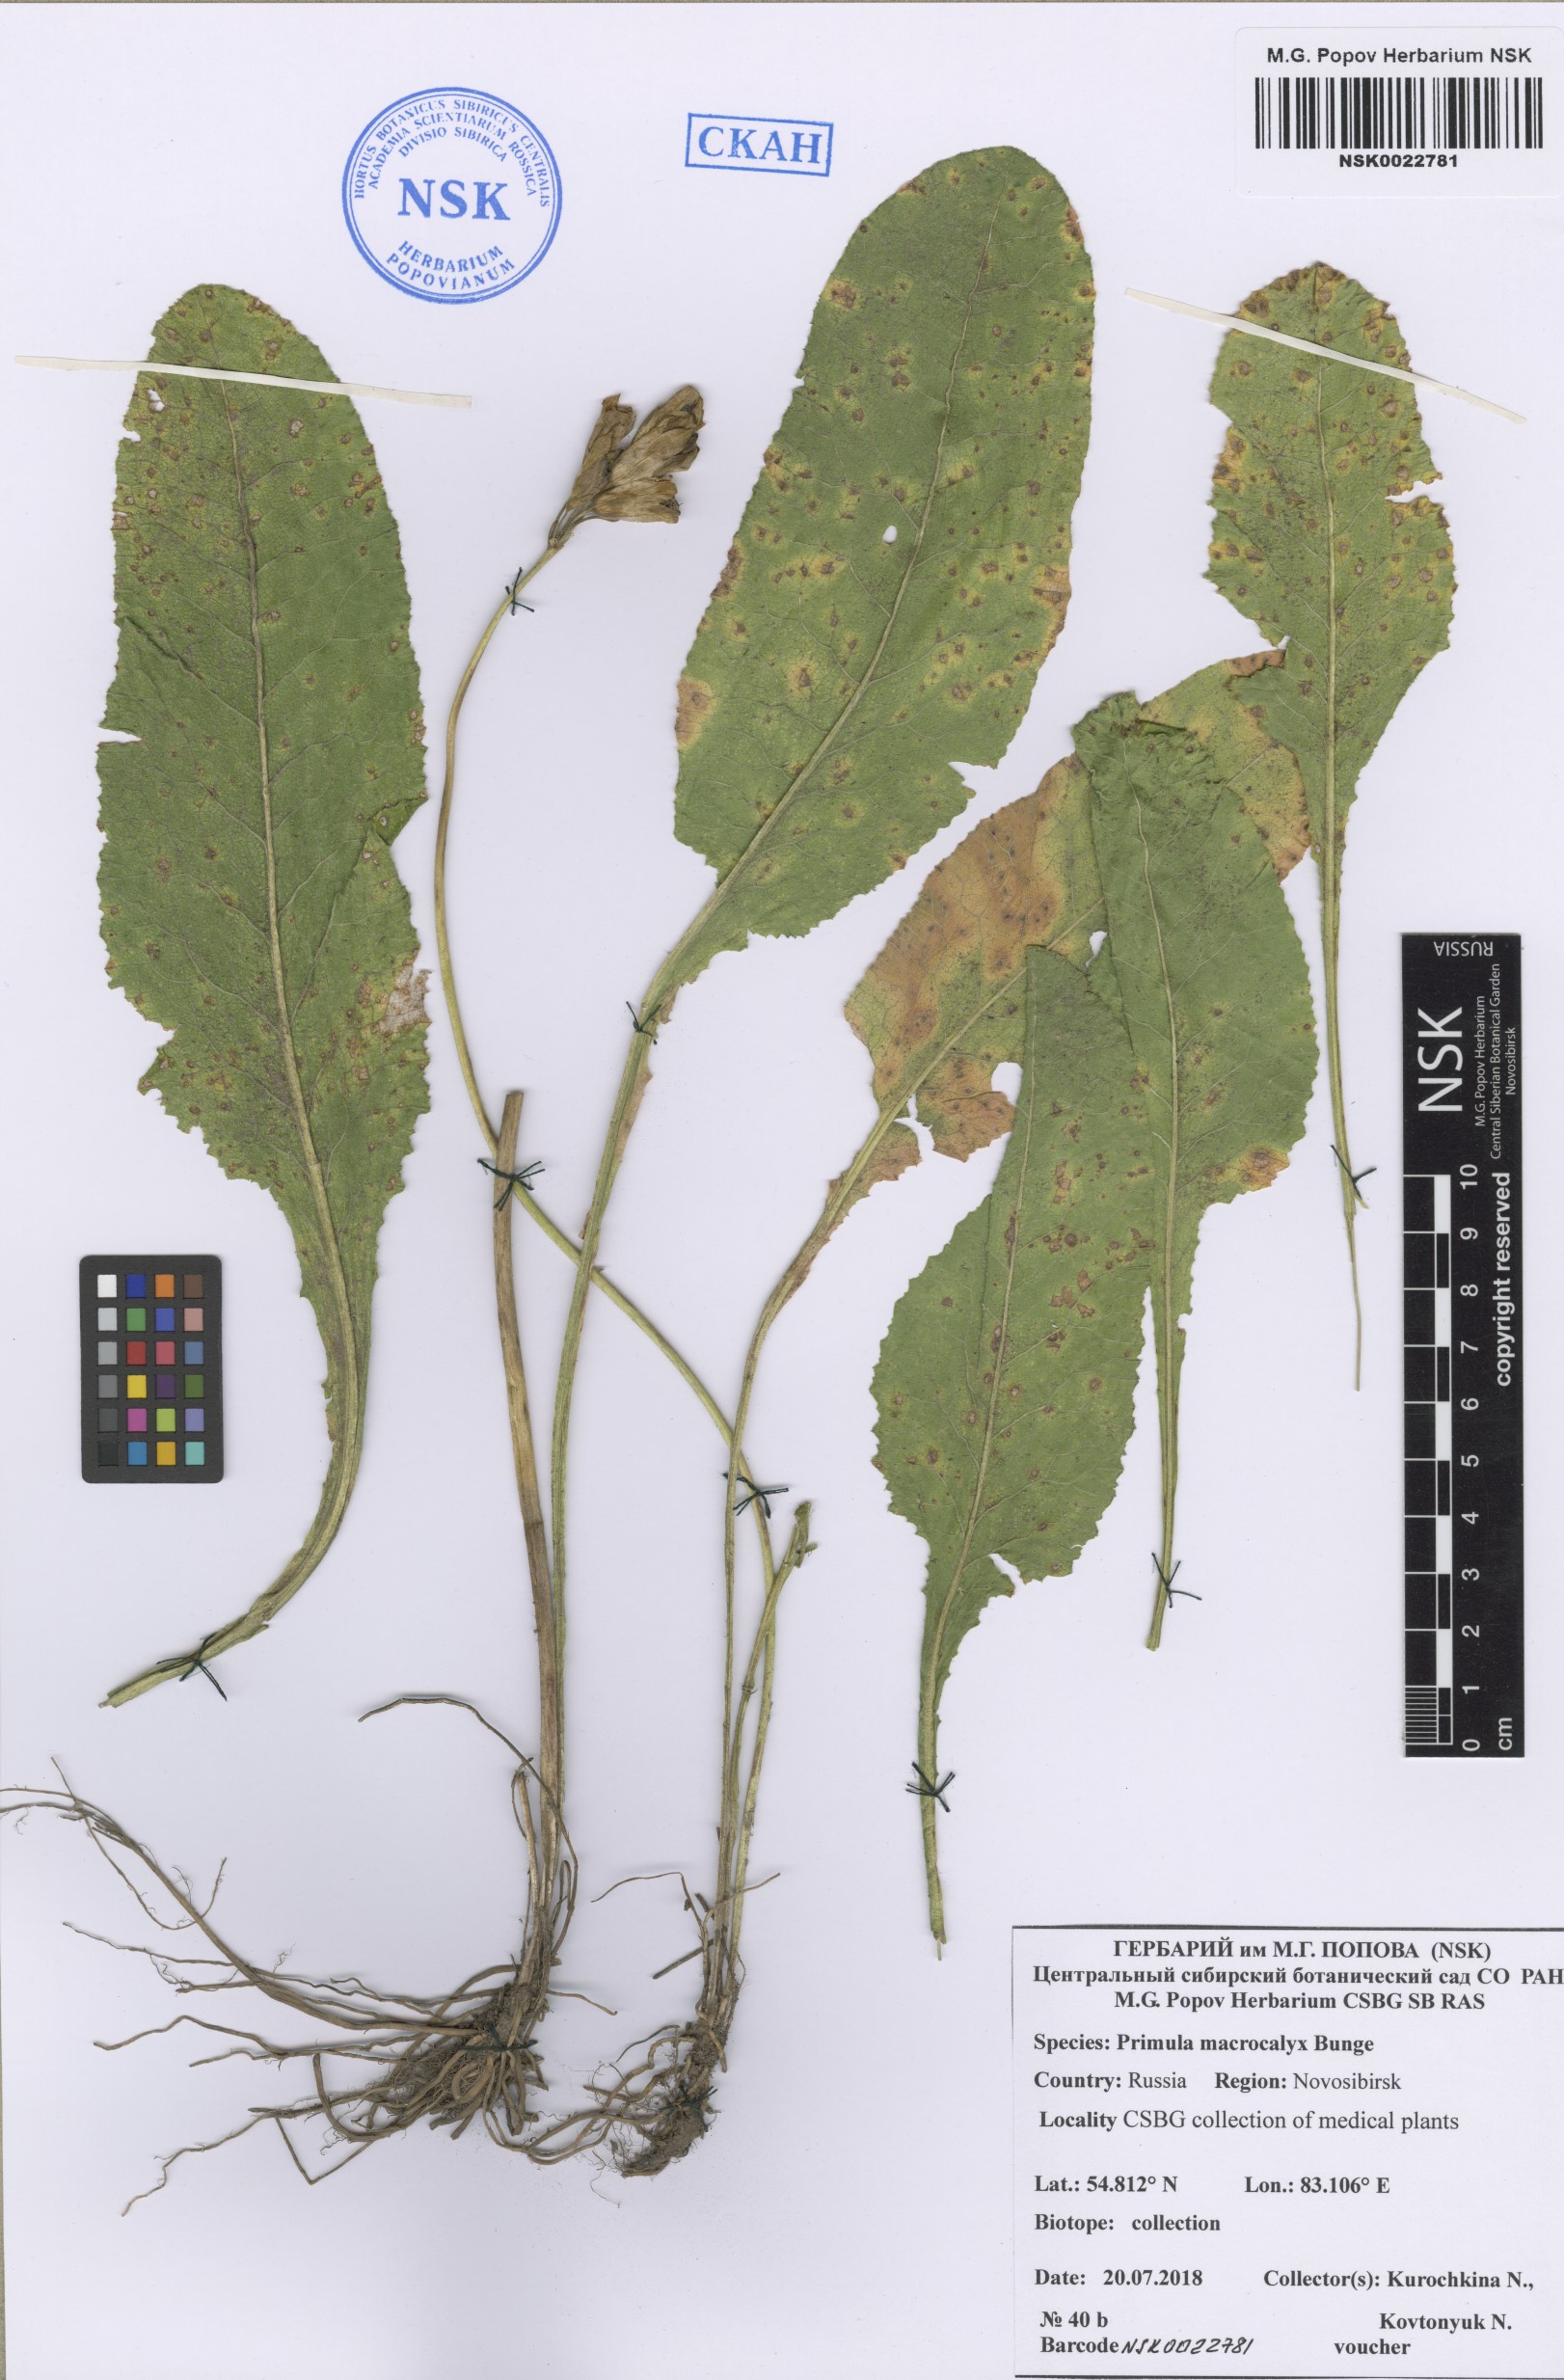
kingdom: Plantae
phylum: Tracheophyta
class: Magnoliopsida
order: Ericales
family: Primulaceae
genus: Primula
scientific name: Primula veris
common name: Cowslip
